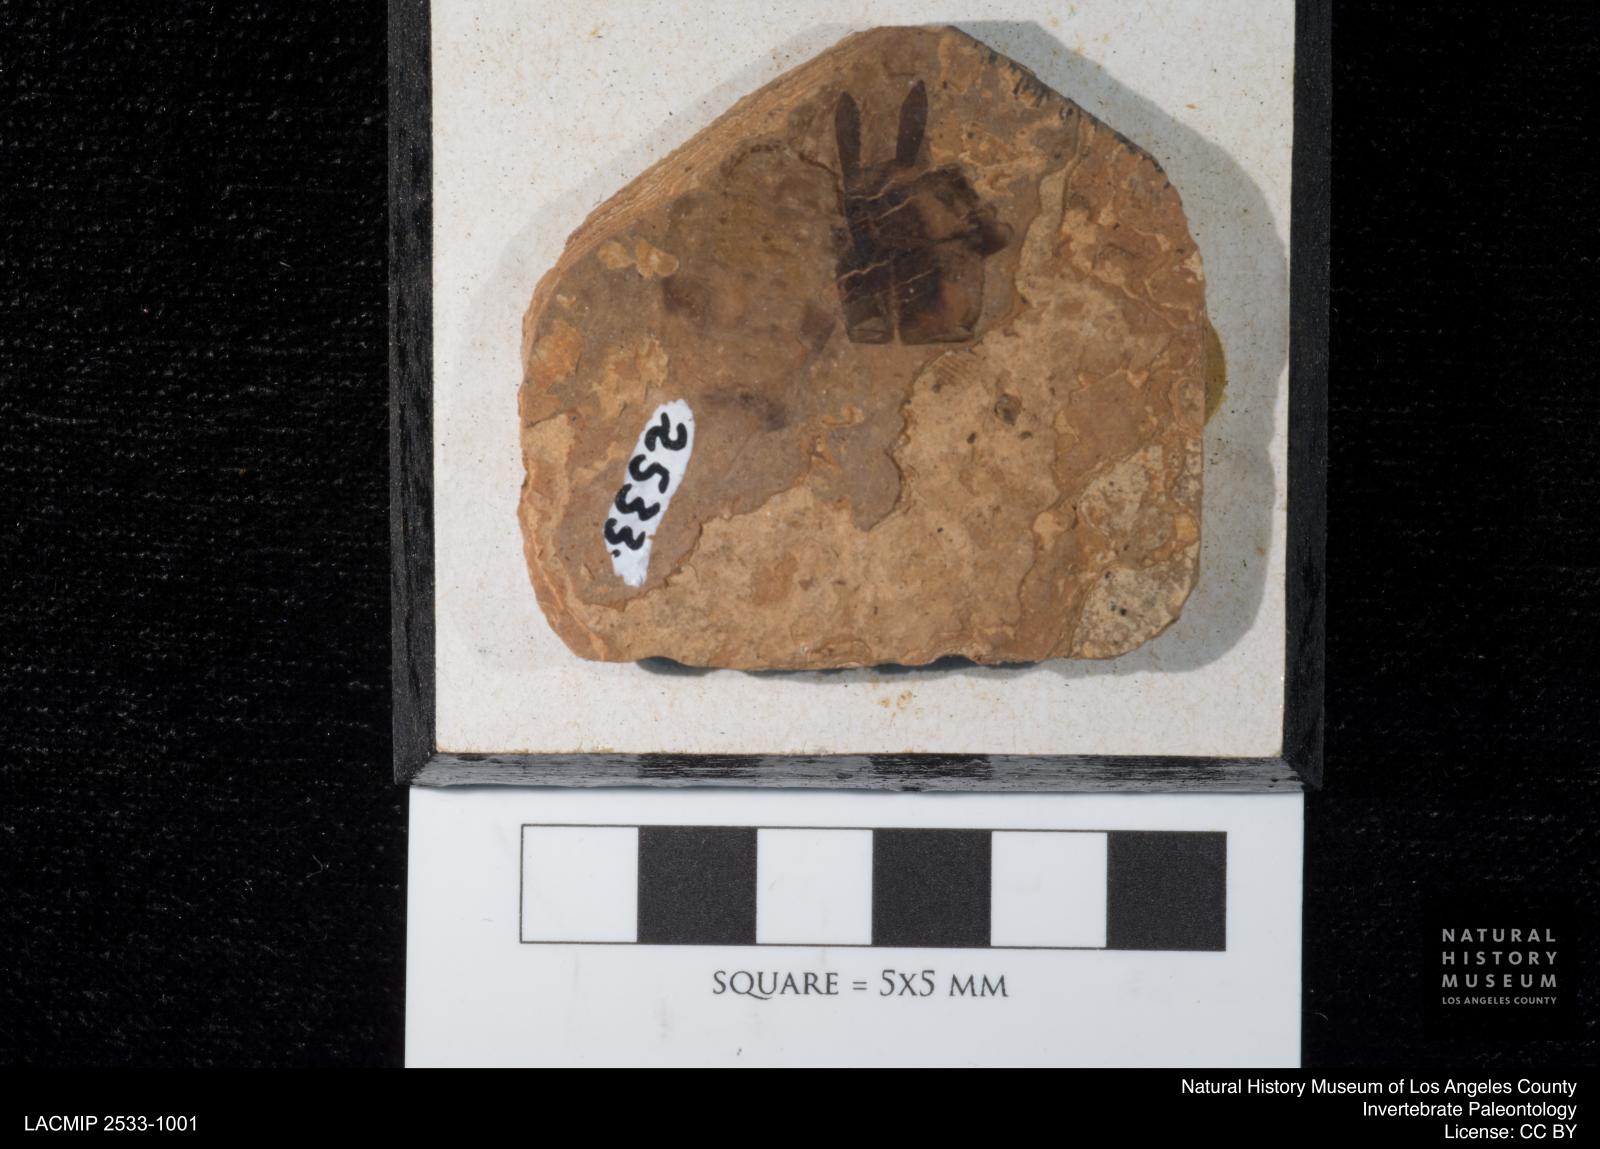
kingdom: Animalia
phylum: Arthropoda
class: Insecta
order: Odonata
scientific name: Odonata
